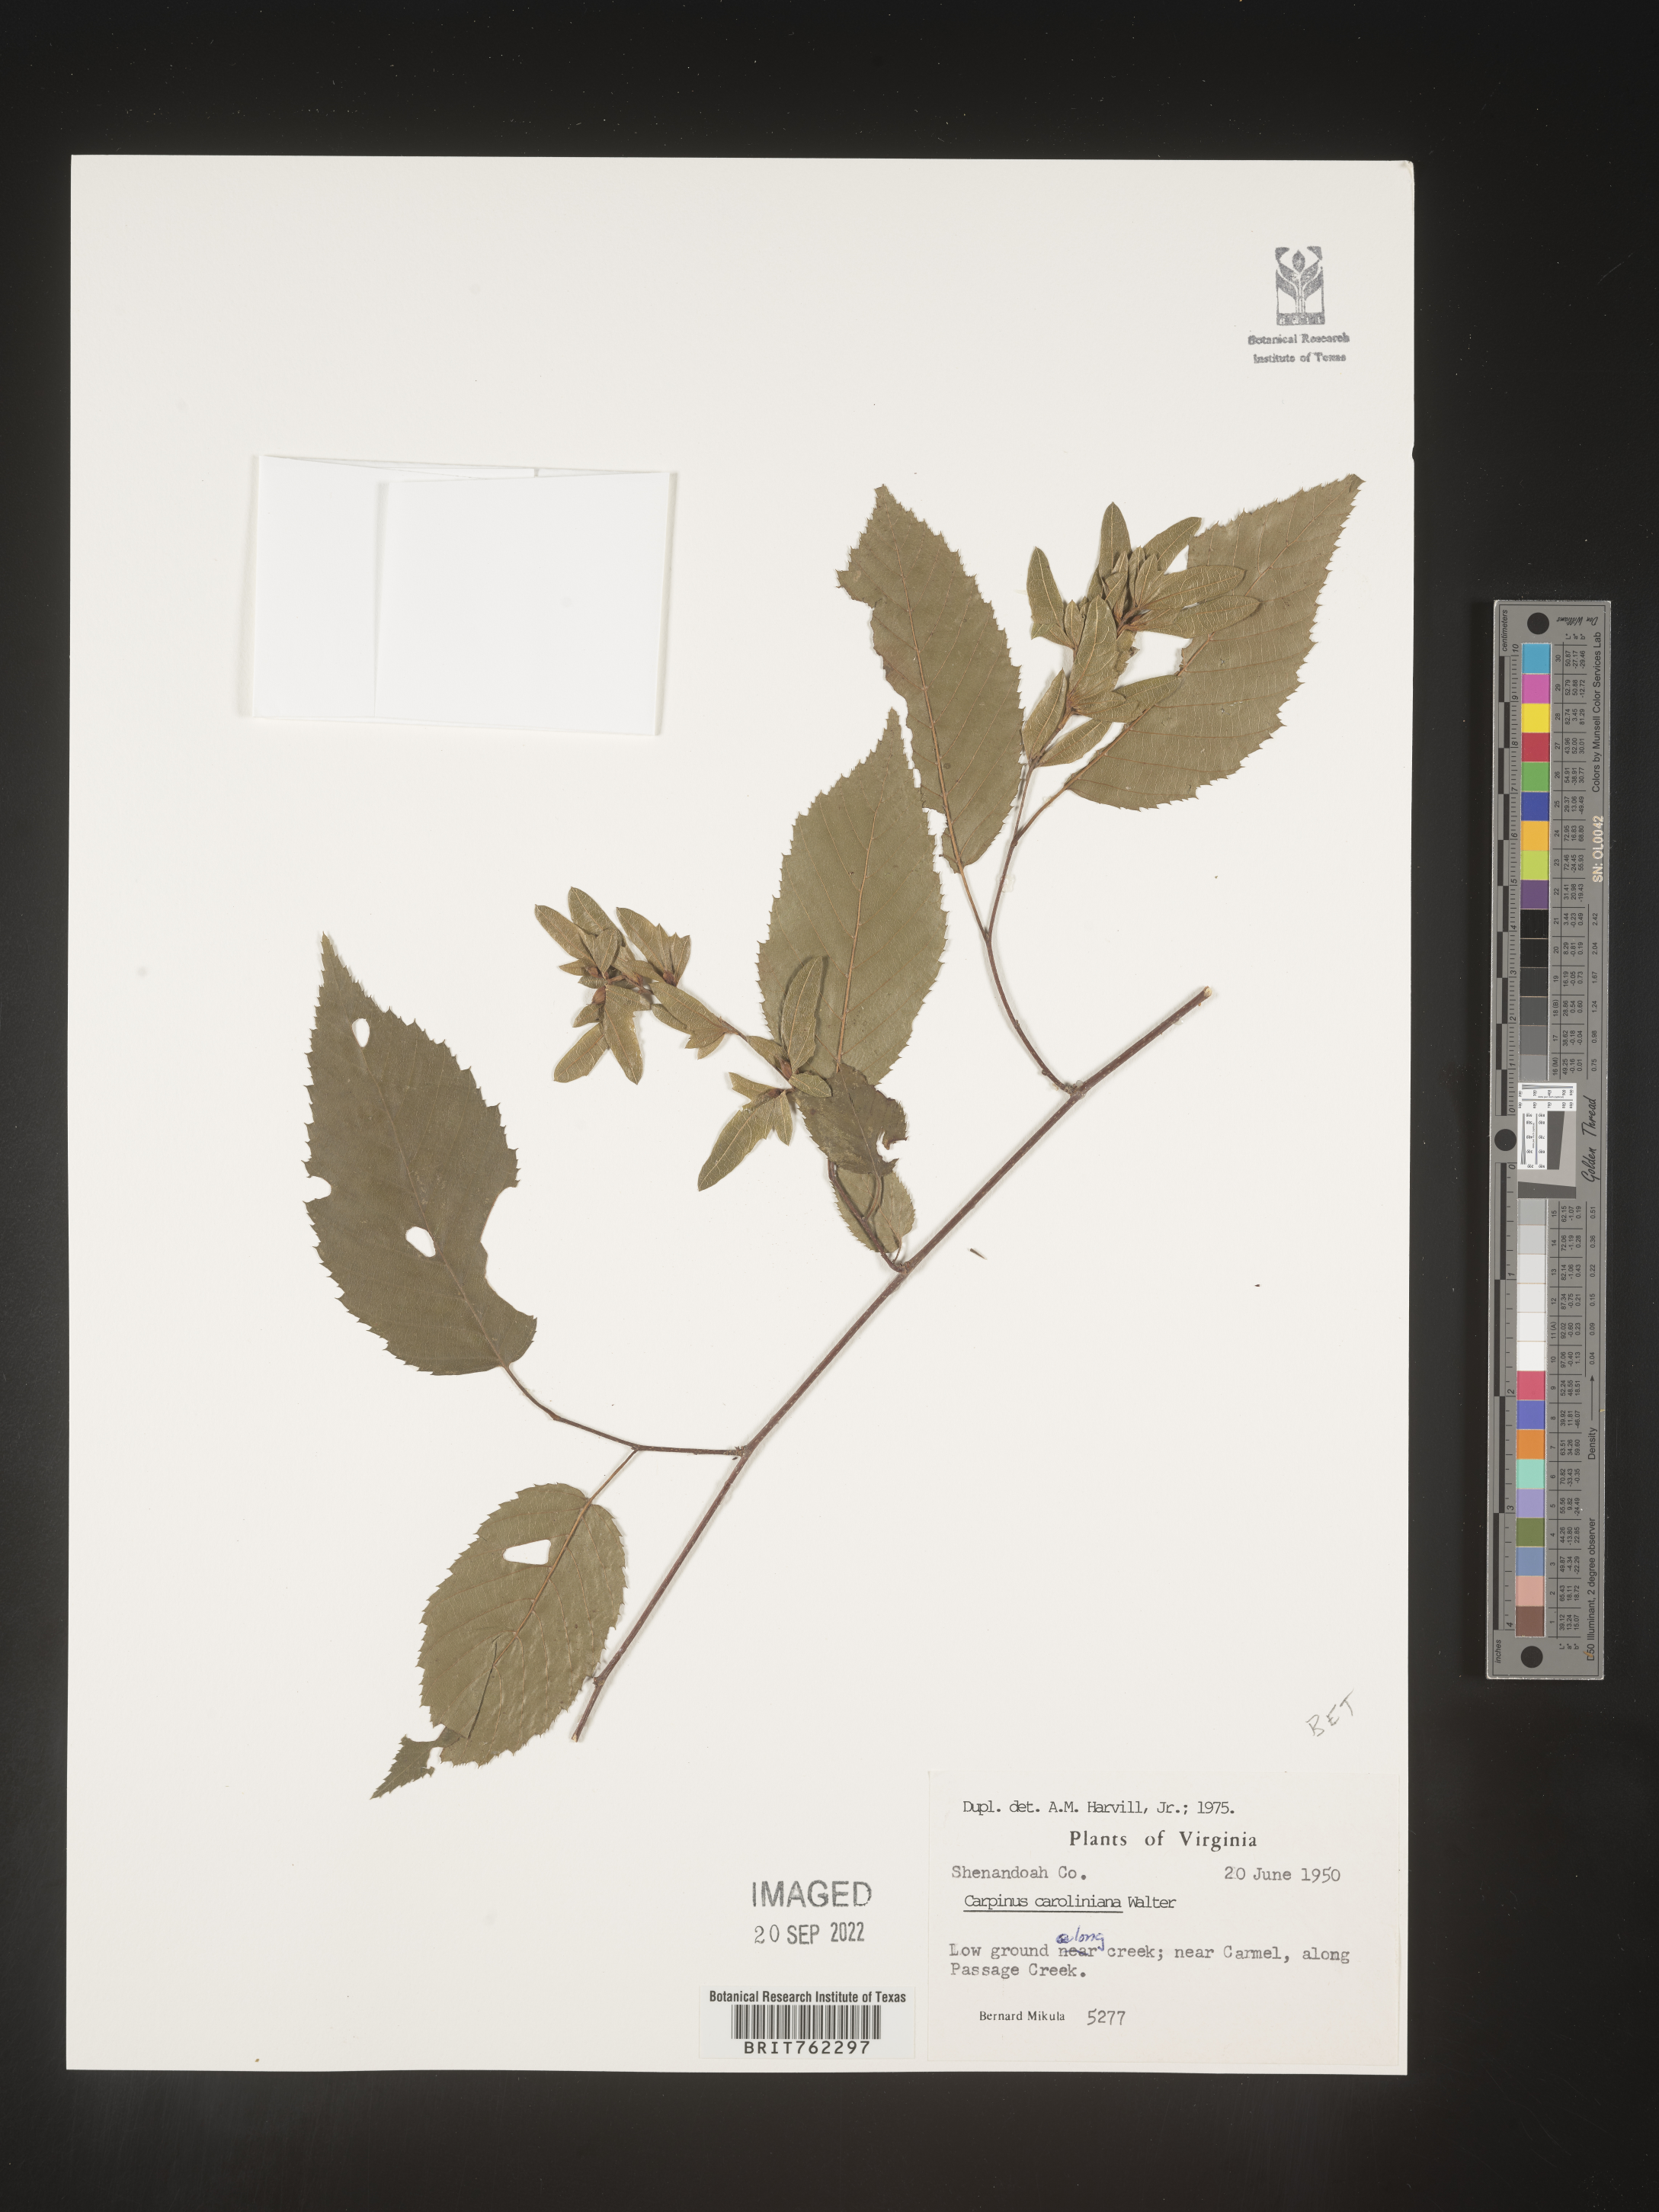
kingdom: Plantae
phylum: Tracheophyta
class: Magnoliopsida
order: Fagales
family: Betulaceae
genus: Carpinus
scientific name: Carpinus caroliniana
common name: American hornbeam
